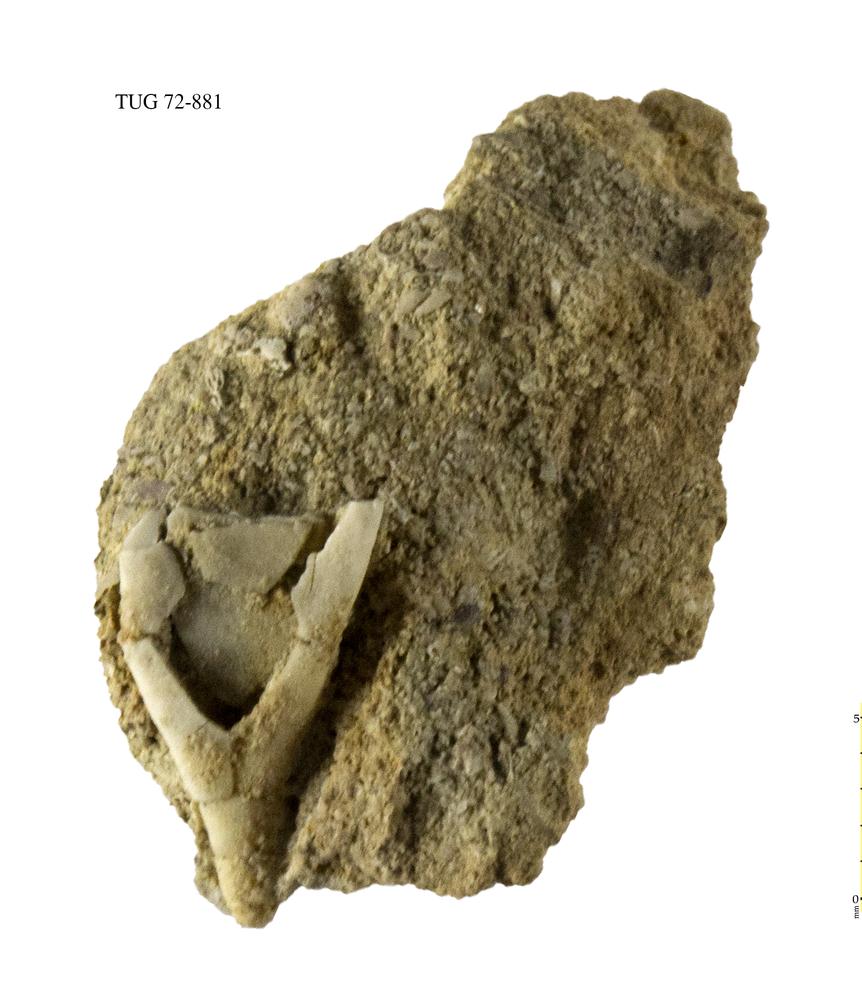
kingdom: Animalia
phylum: Echinodermata
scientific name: Echinodermata
